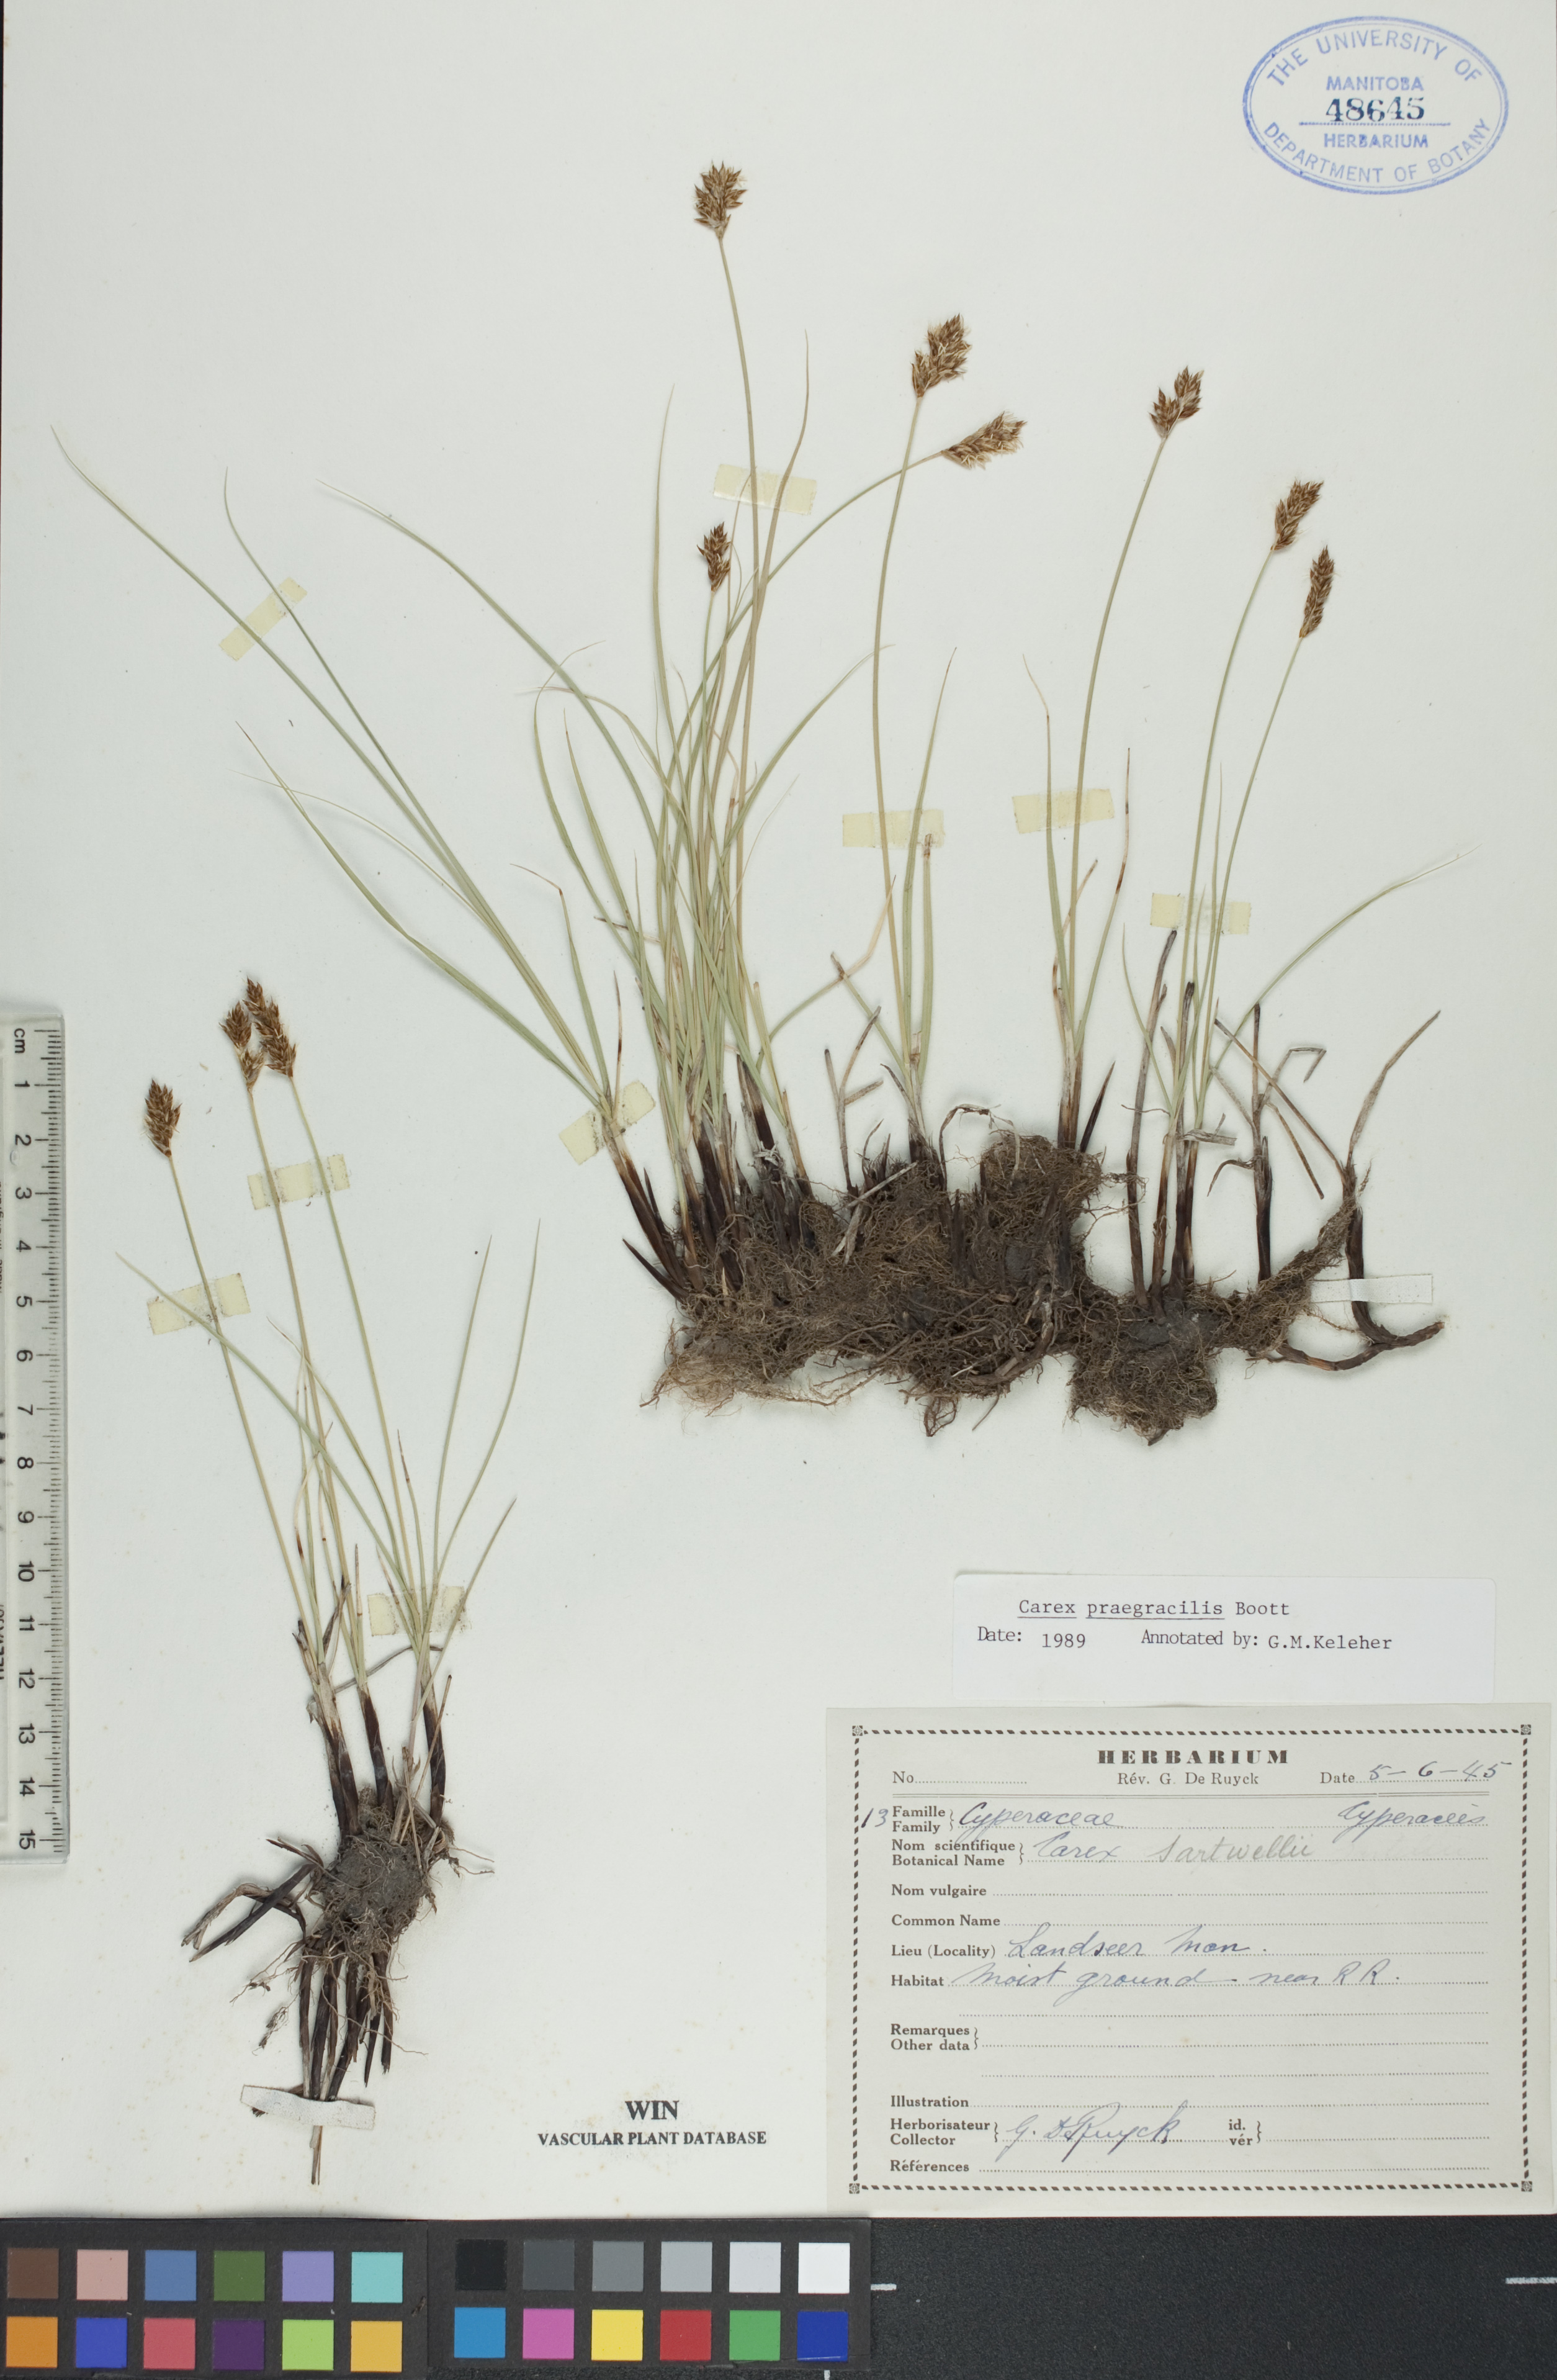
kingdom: Plantae
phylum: Tracheophyta
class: Liliopsida
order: Poales
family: Cyperaceae
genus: Carex
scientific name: Carex praegracilis
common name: Black creeper sedge
